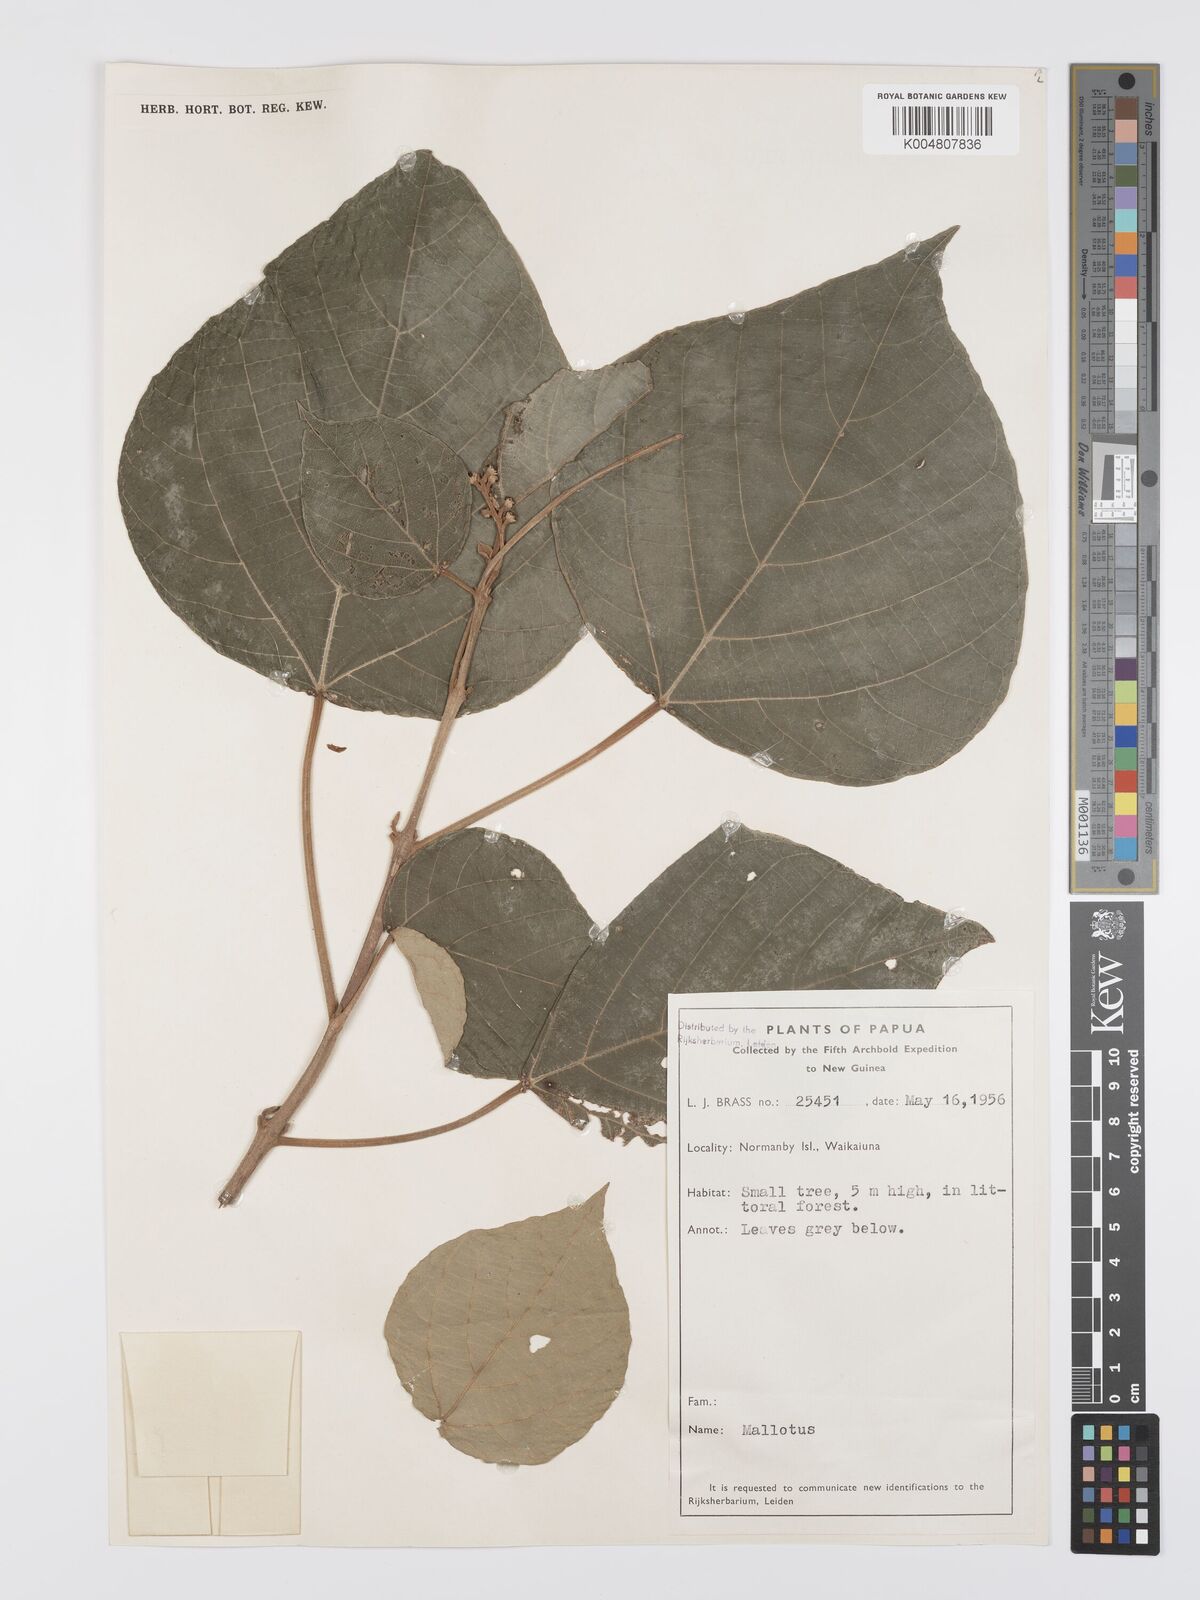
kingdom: Plantae
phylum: Tracheophyta
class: Magnoliopsida
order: Malpighiales
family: Euphorbiaceae
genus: Mallotus
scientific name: Mallotus tiliifolius
